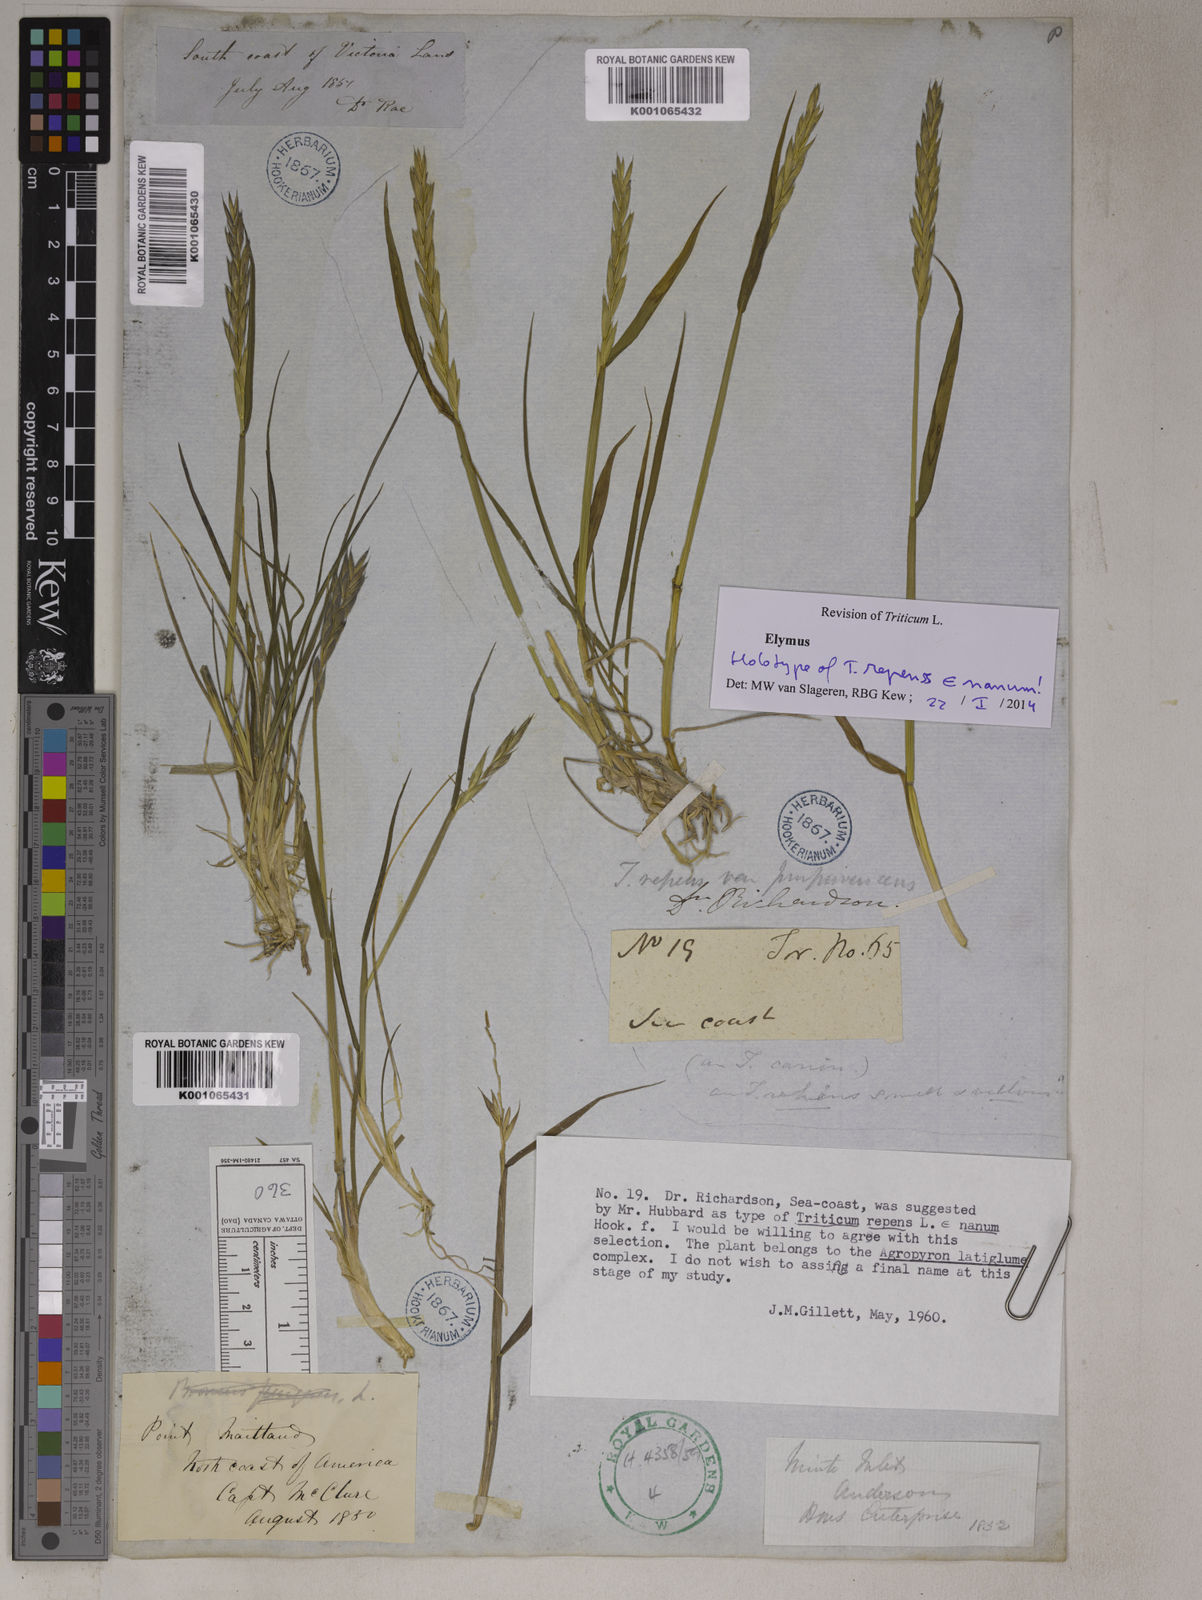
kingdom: Plantae
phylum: Tracheophyta
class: Liliopsida
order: Poales
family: Poaceae
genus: Elymus
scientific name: Elymus repens
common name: Quackgrass
